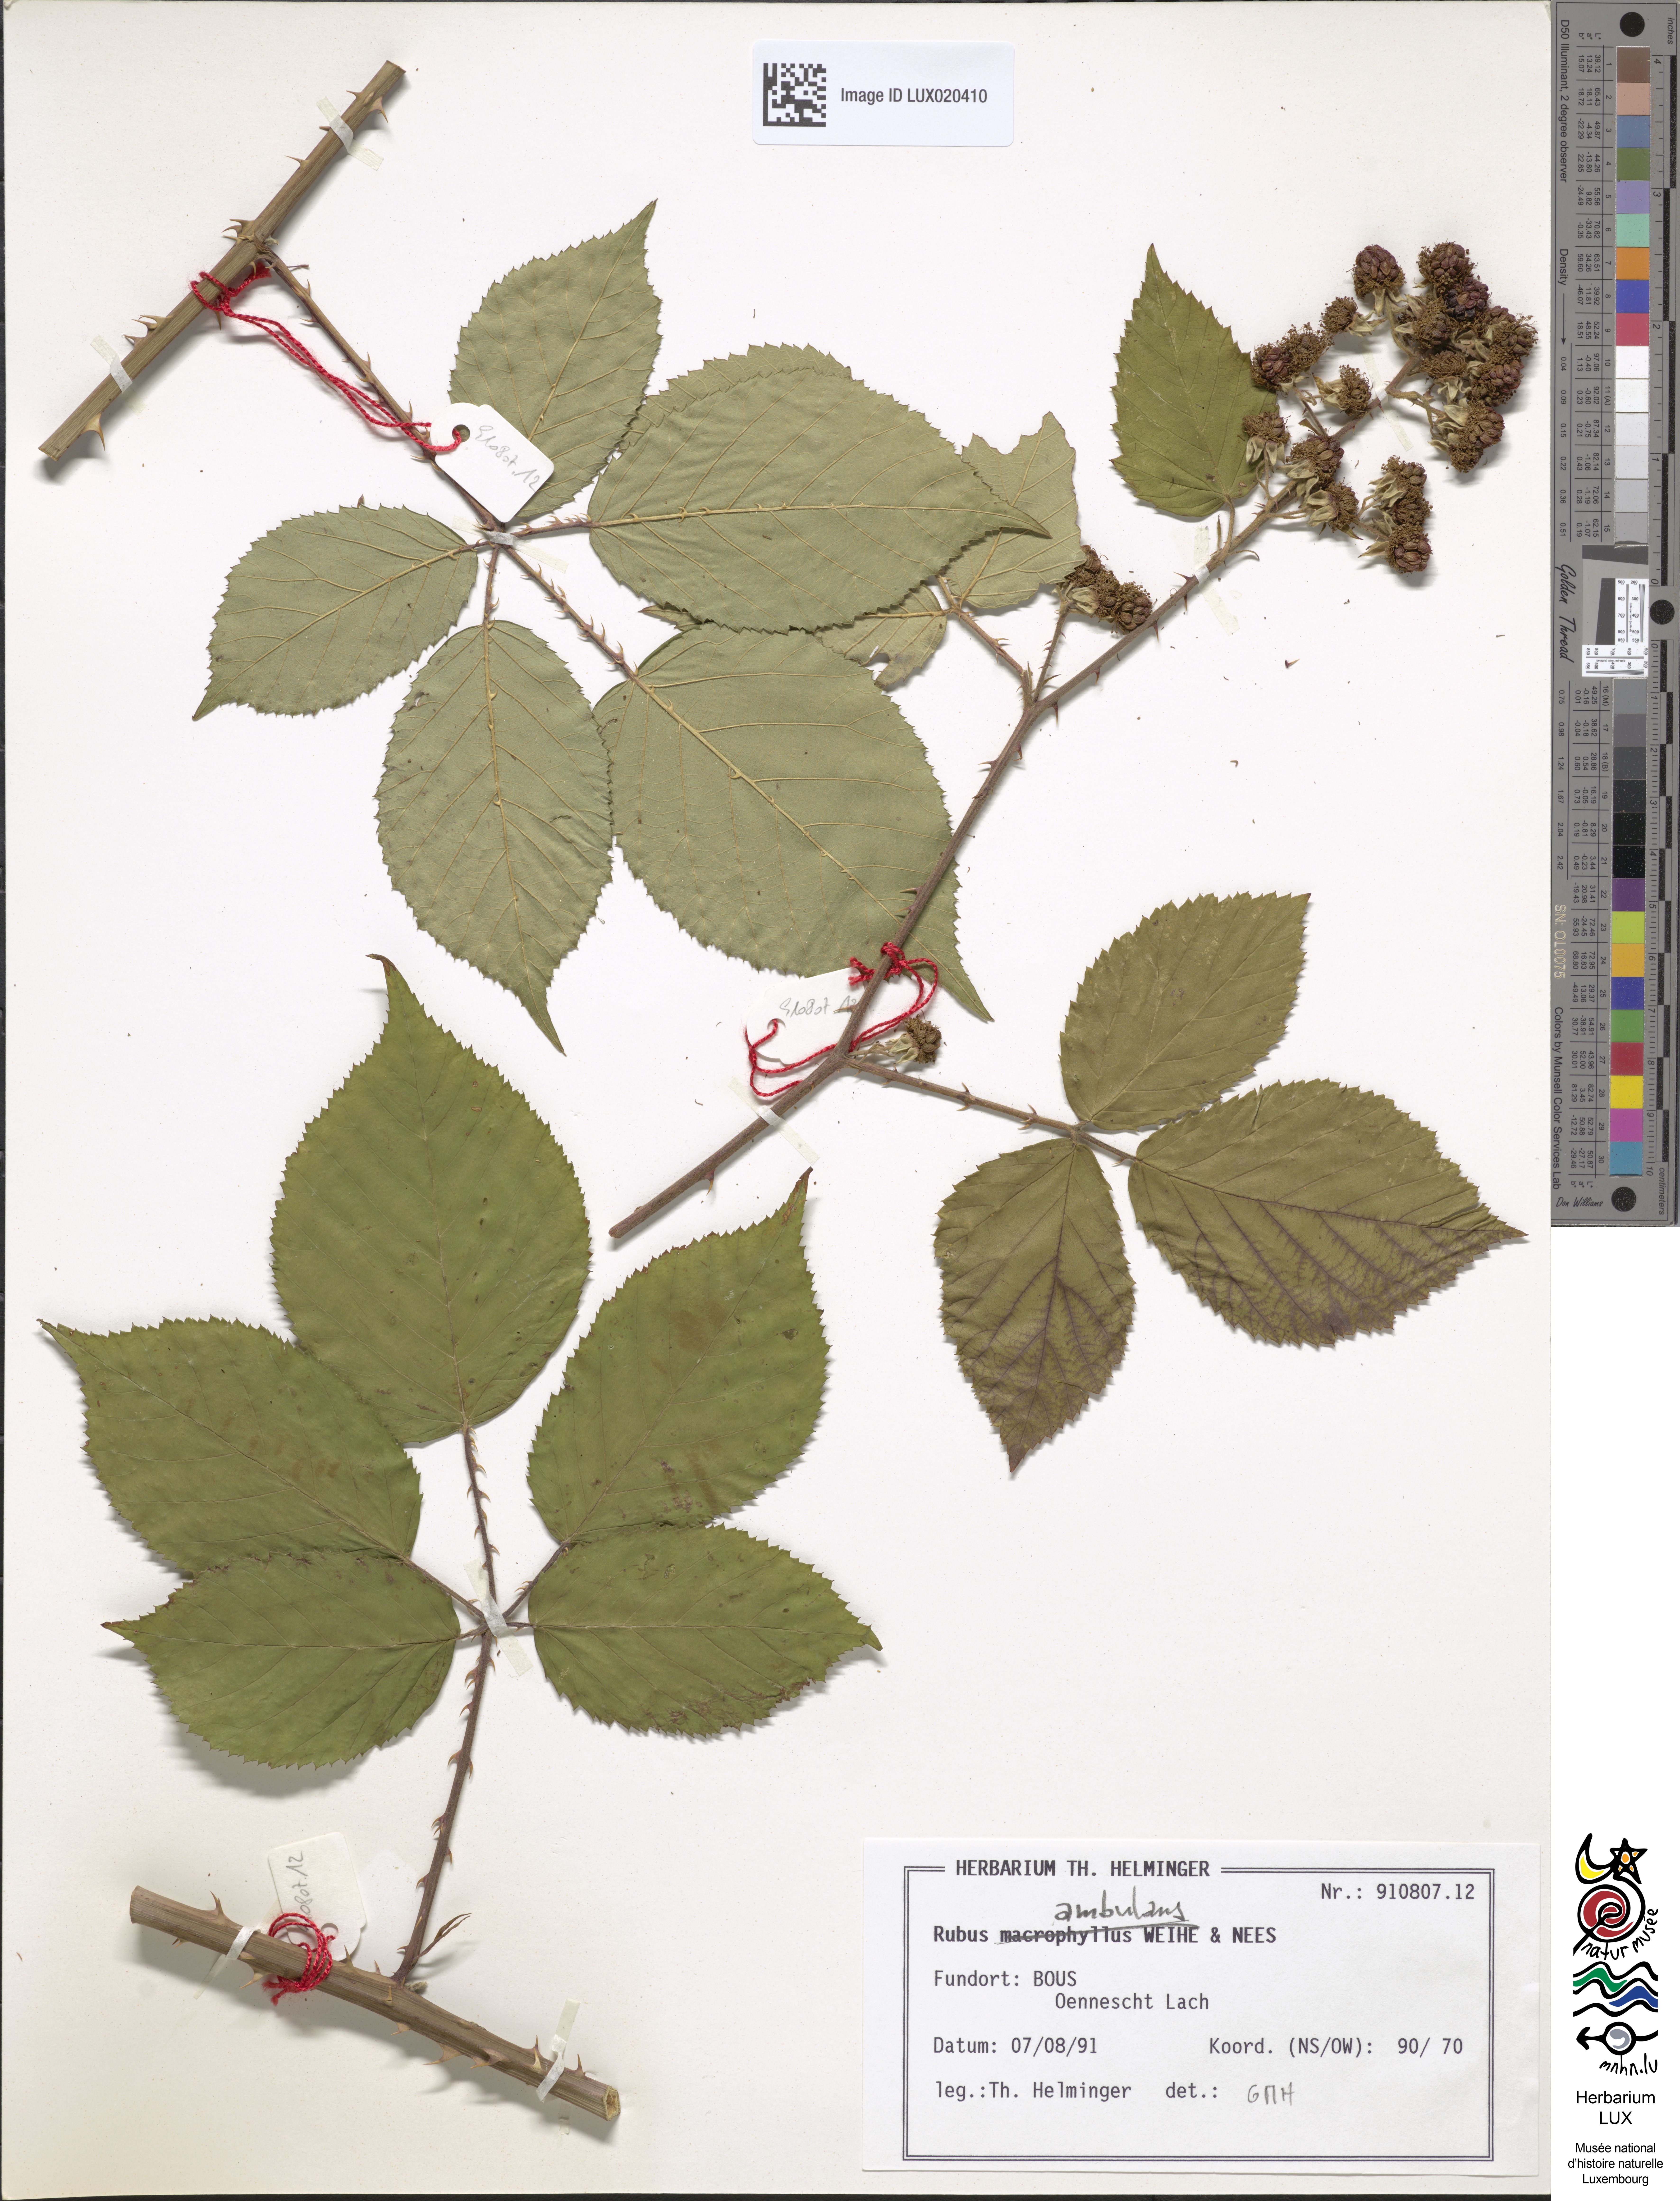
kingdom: Plantae
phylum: Tracheophyta
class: Magnoliopsida
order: Rosales
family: Rosaceae
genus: Rubus
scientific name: Rubus gremlii
